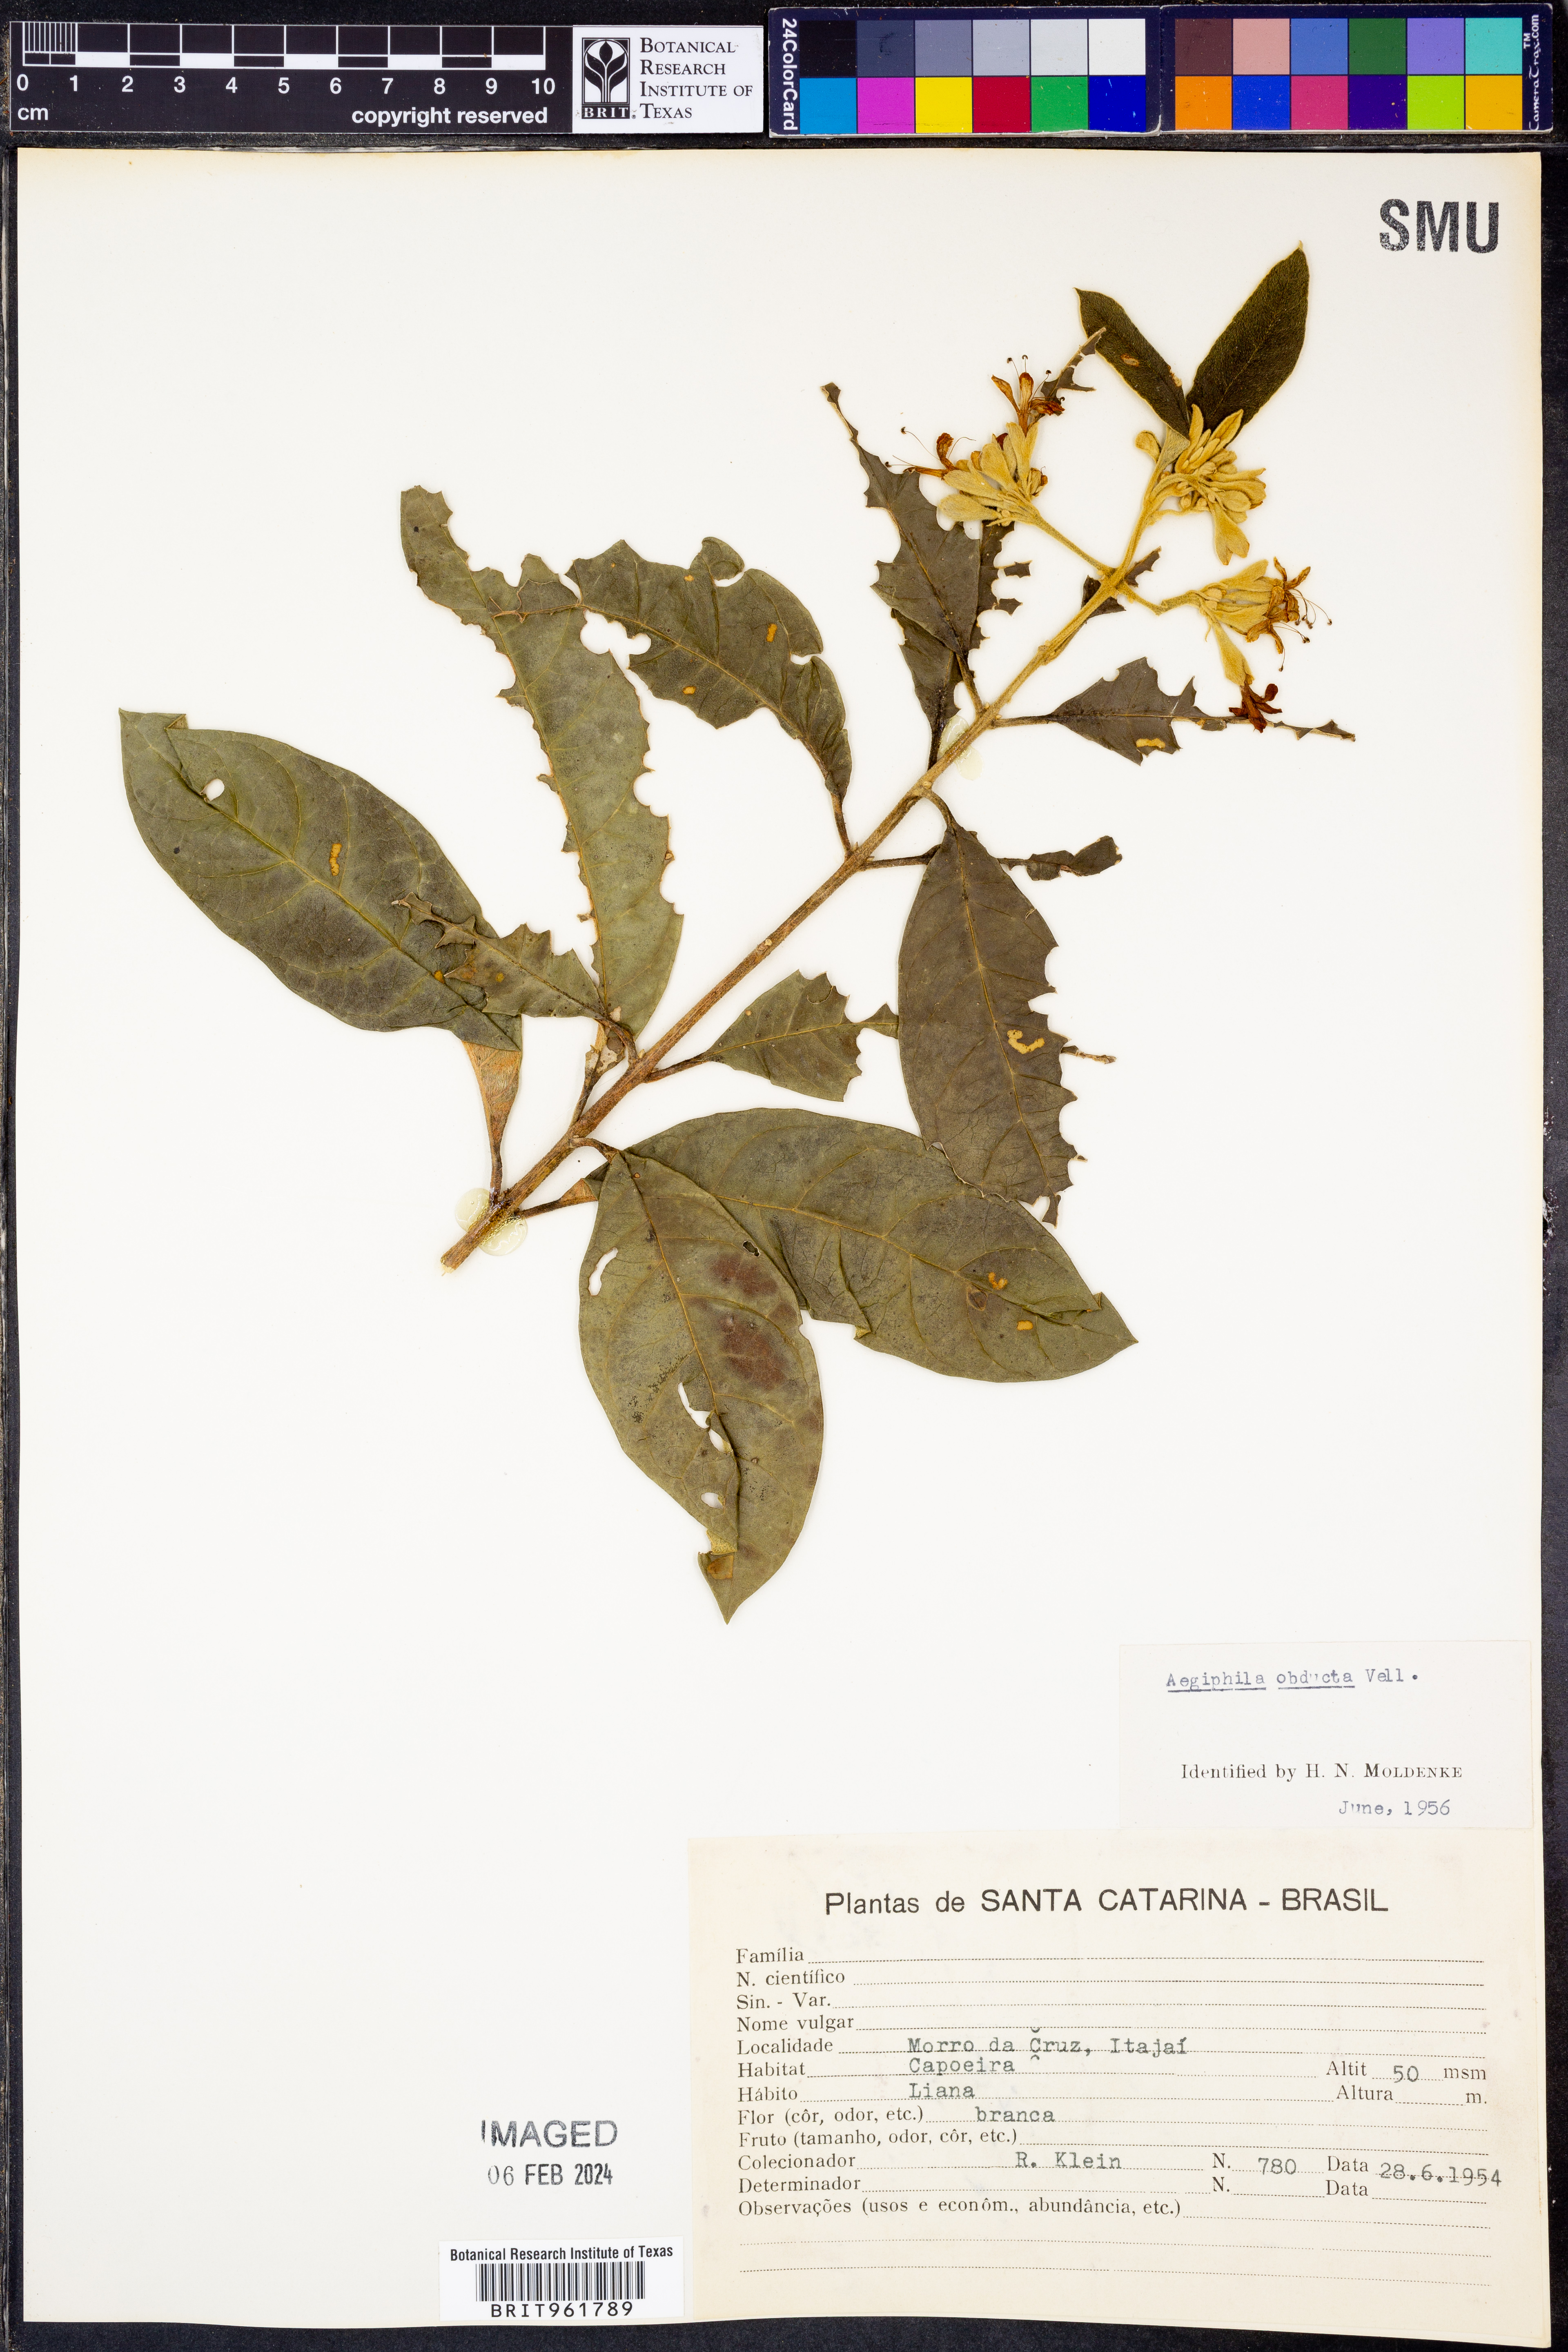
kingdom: Plantae
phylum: Tracheophyta
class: Magnoliopsida
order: Lamiales
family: Lamiaceae
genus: Aegiphila
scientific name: Aegiphila
